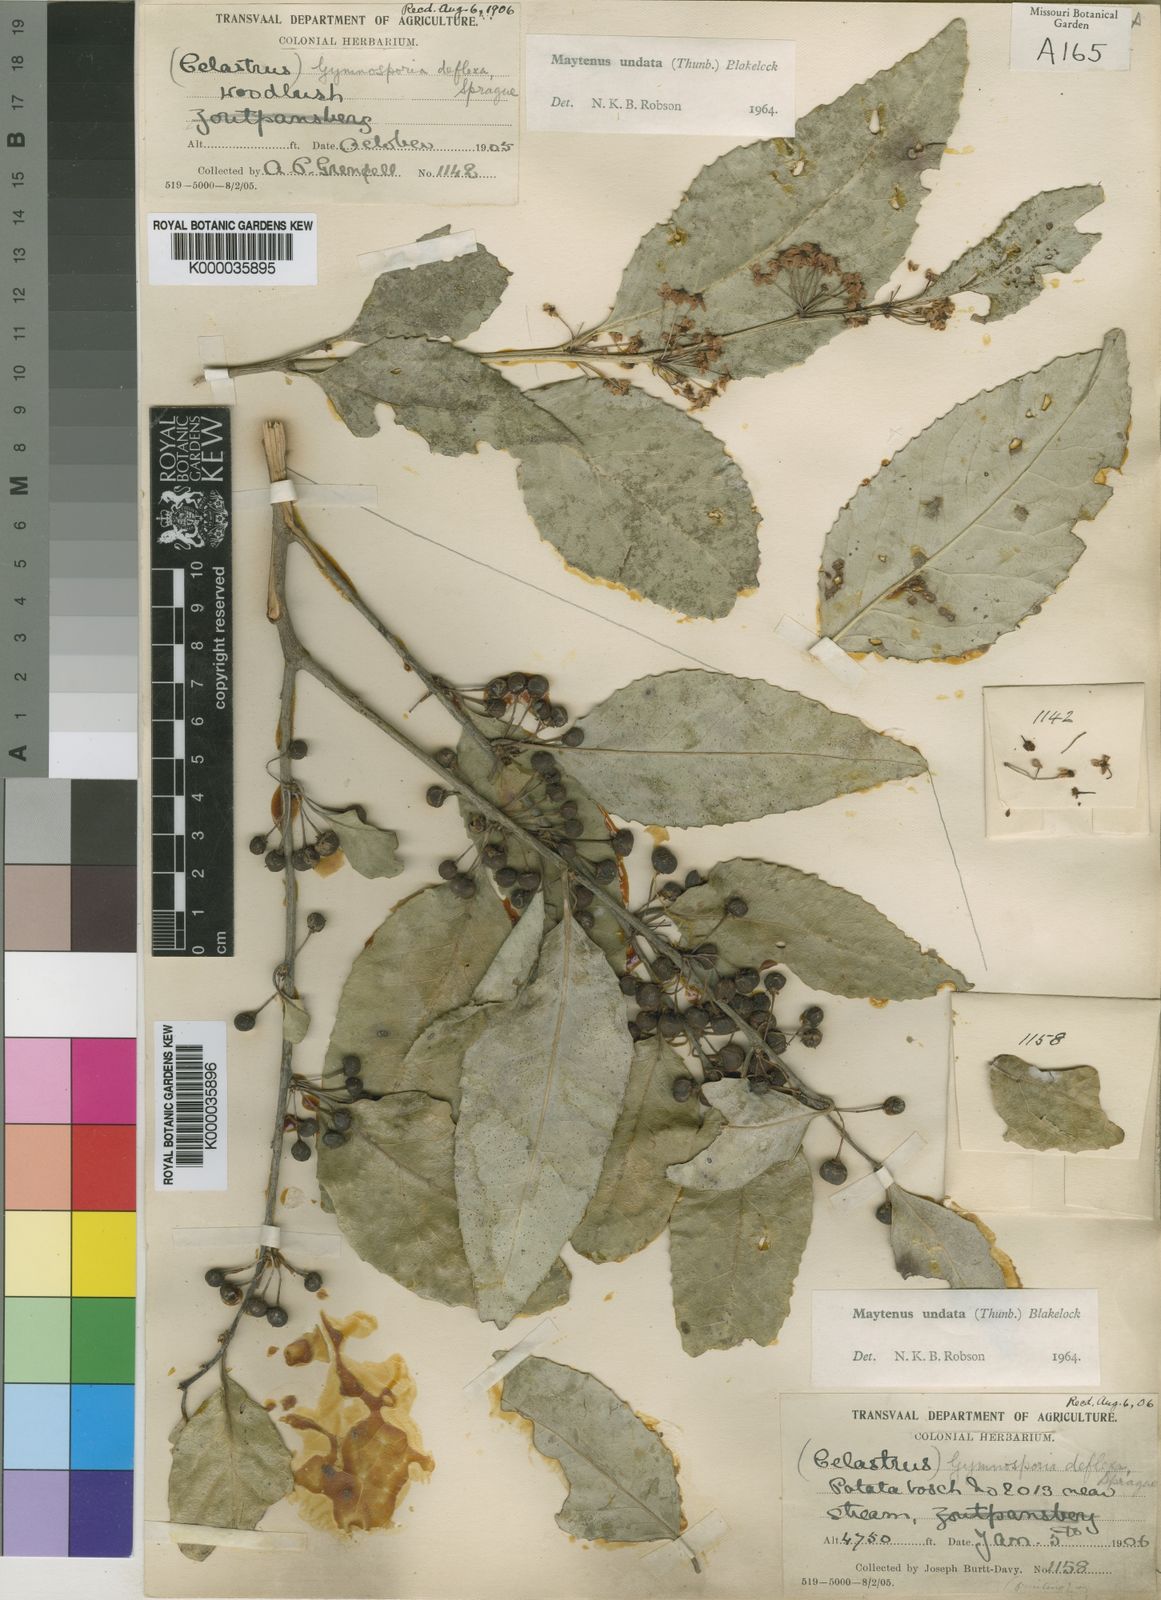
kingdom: Plantae
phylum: Tracheophyta
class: Magnoliopsida
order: Celastrales
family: Celastraceae
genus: Gymnosporia
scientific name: Gymnosporia undata
